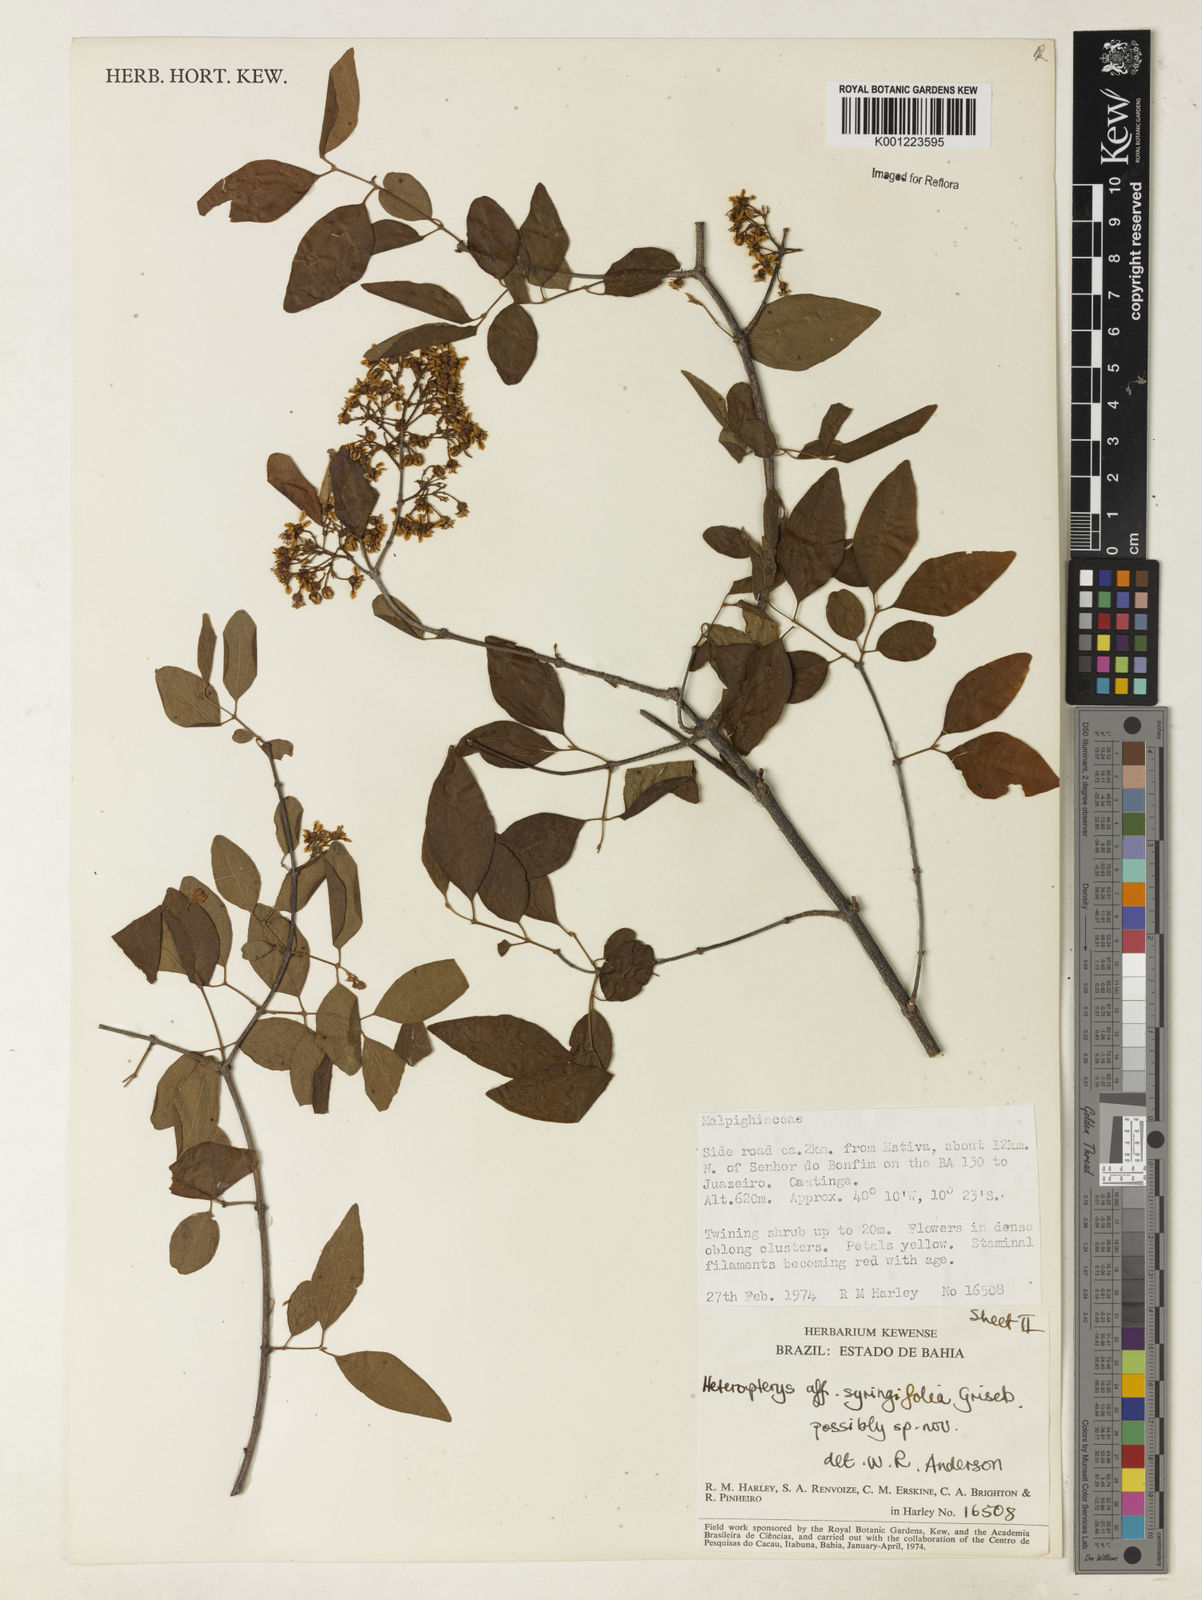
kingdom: Plantae
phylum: Tracheophyta
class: Magnoliopsida
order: Malpighiales
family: Malpighiaceae
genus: Heteropterys
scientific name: Heteropterys syringifolia
